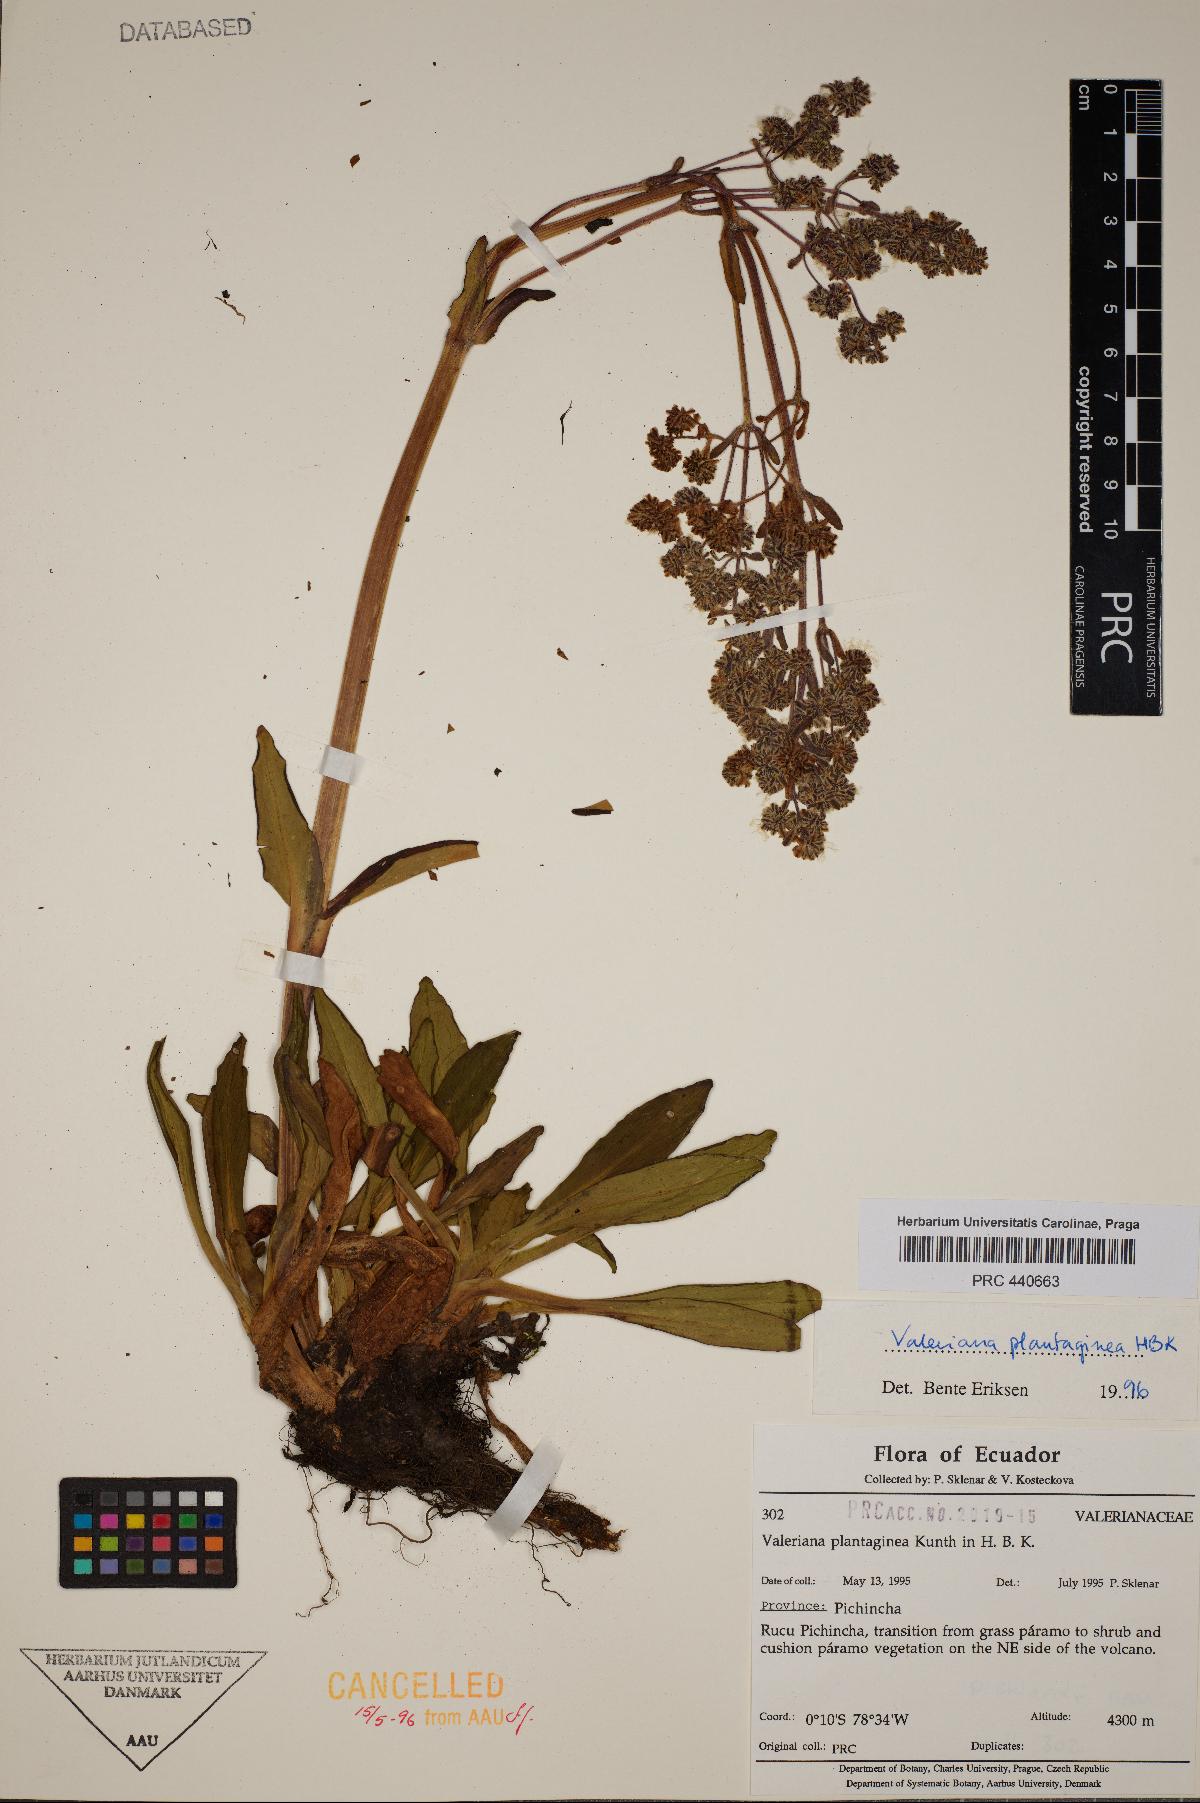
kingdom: Plantae
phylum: Tracheophyta
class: Magnoliopsida
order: Dipsacales
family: Caprifoliaceae
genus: Valeriana
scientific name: Valeriana pilosa
